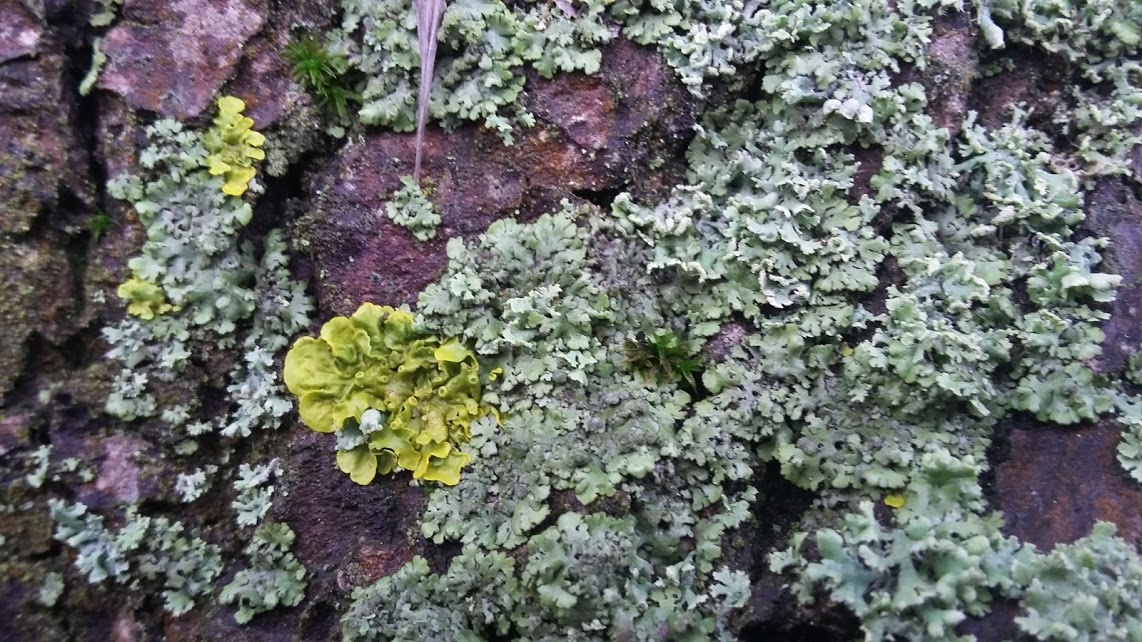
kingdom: Fungi
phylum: Ascomycota
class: Lecanoromycetes
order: Caliciales
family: Physciaceae
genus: Physcia
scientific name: Physcia tenella
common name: spæd rosetlav
